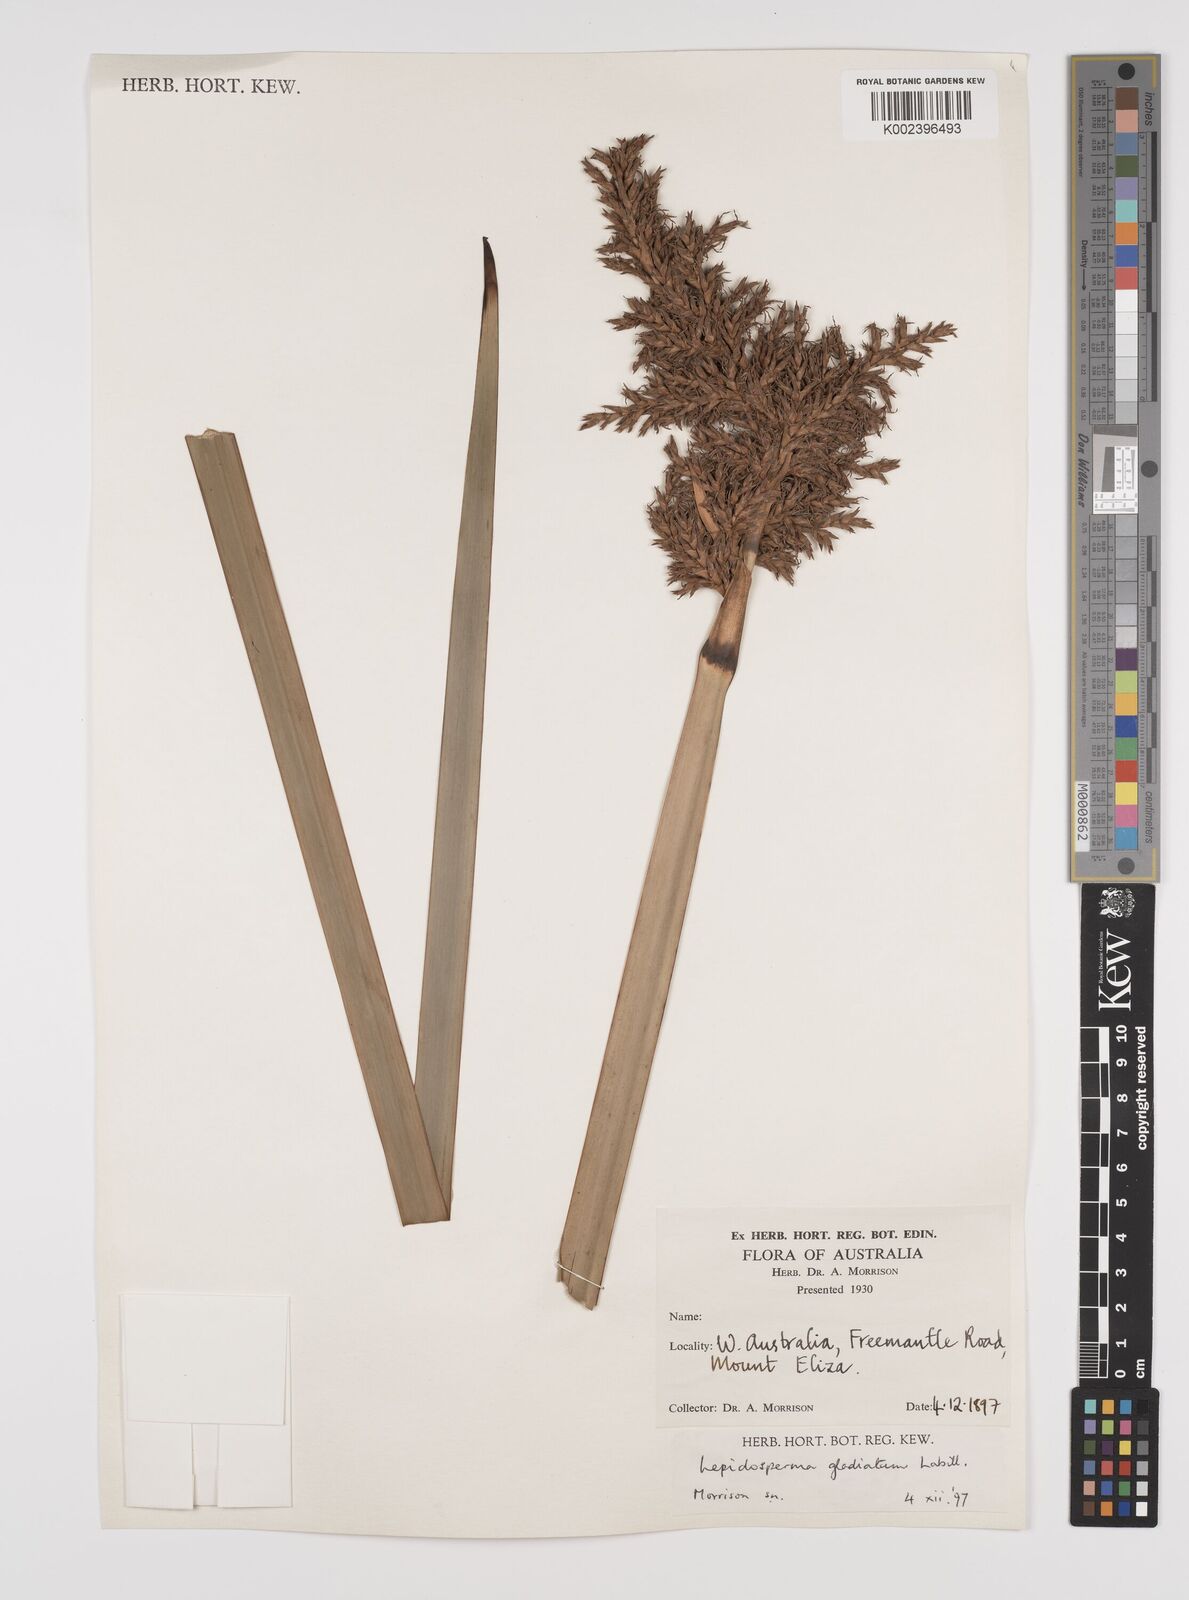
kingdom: Plantae
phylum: Tracheophyta
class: Liliopsida
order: Poales
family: Cyperaceae
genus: Lepidosperma
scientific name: Lepidosperma gladiatum
